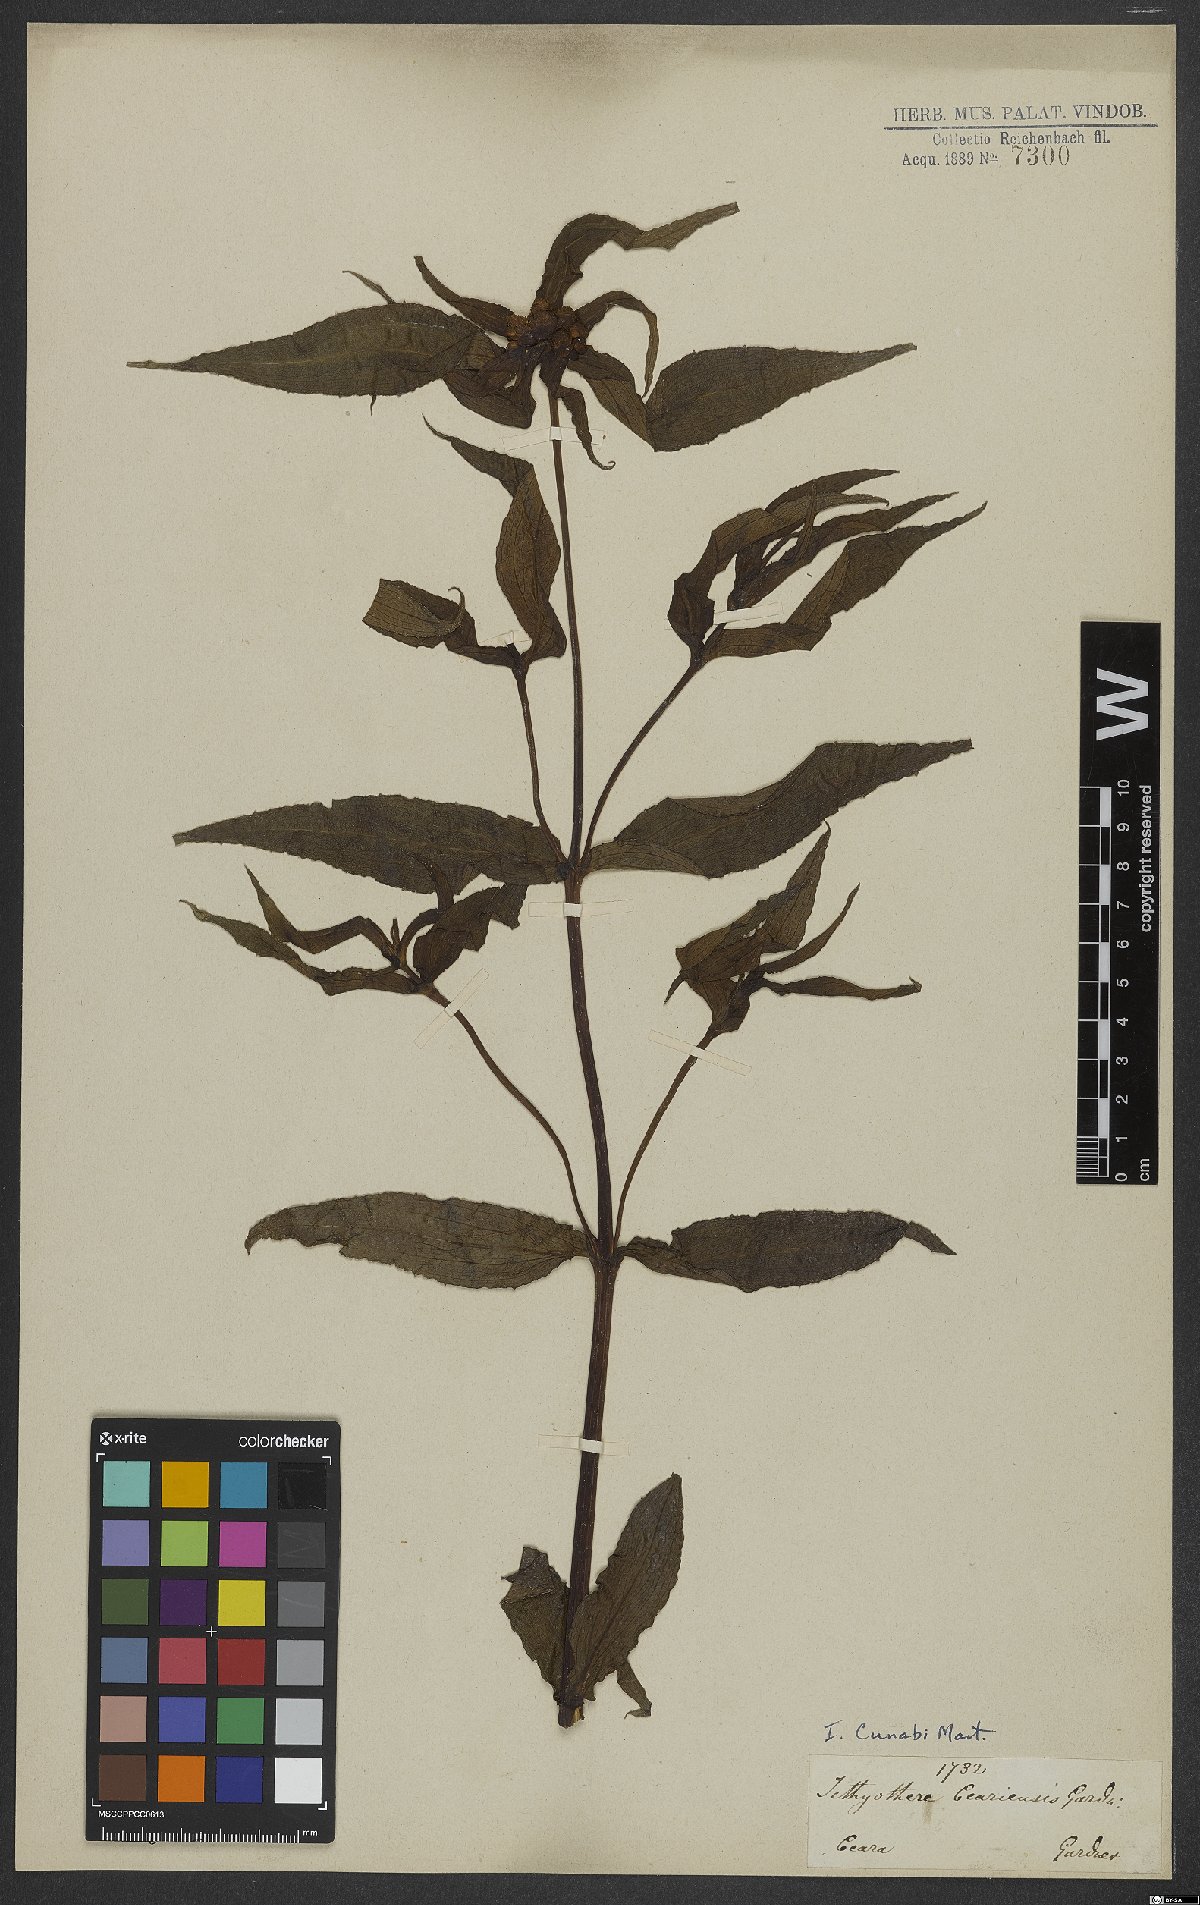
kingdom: Plantae
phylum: Tracheophyta
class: Magnoliopsida
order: Asterales
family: Asteraceae
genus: Ichthyothere
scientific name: Ichthyothere cunabi
